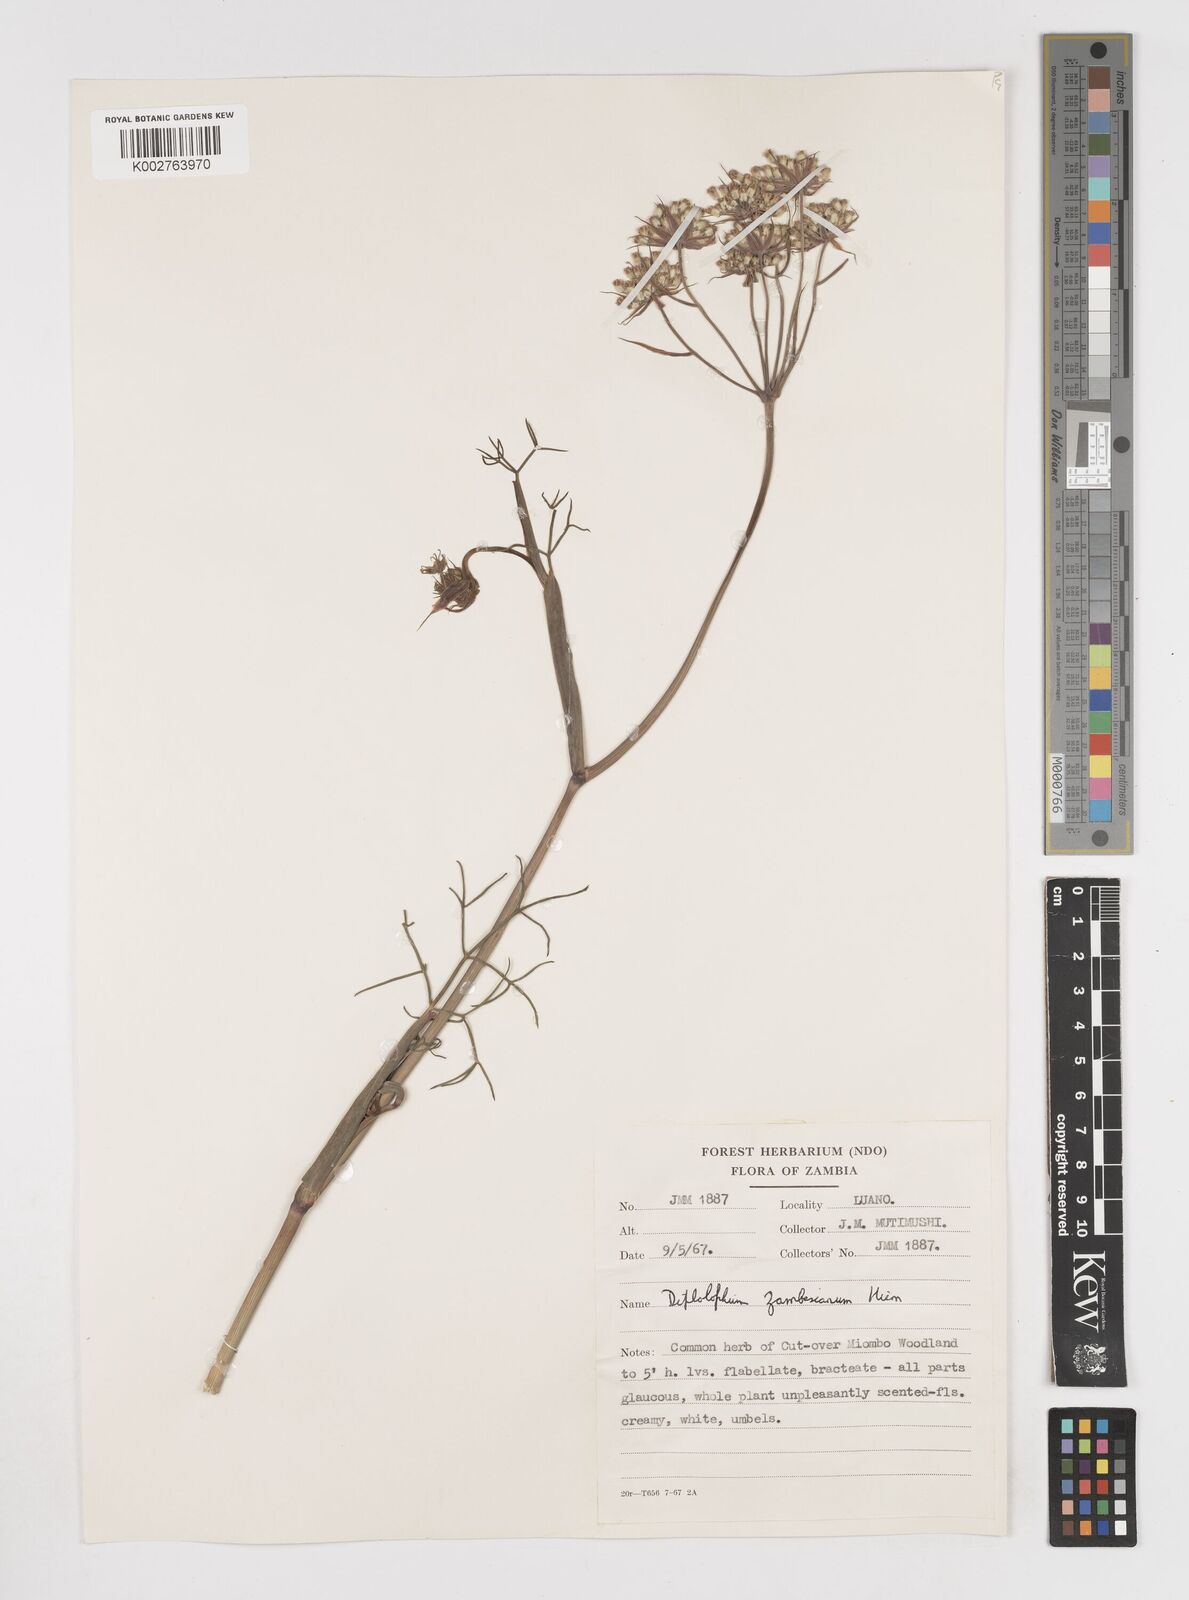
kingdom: Plantae
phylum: Tracheophyta
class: Magnoliopsida
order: Apiales
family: Apiaceae
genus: Diplolophium
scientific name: Diplolophium zambesianum
